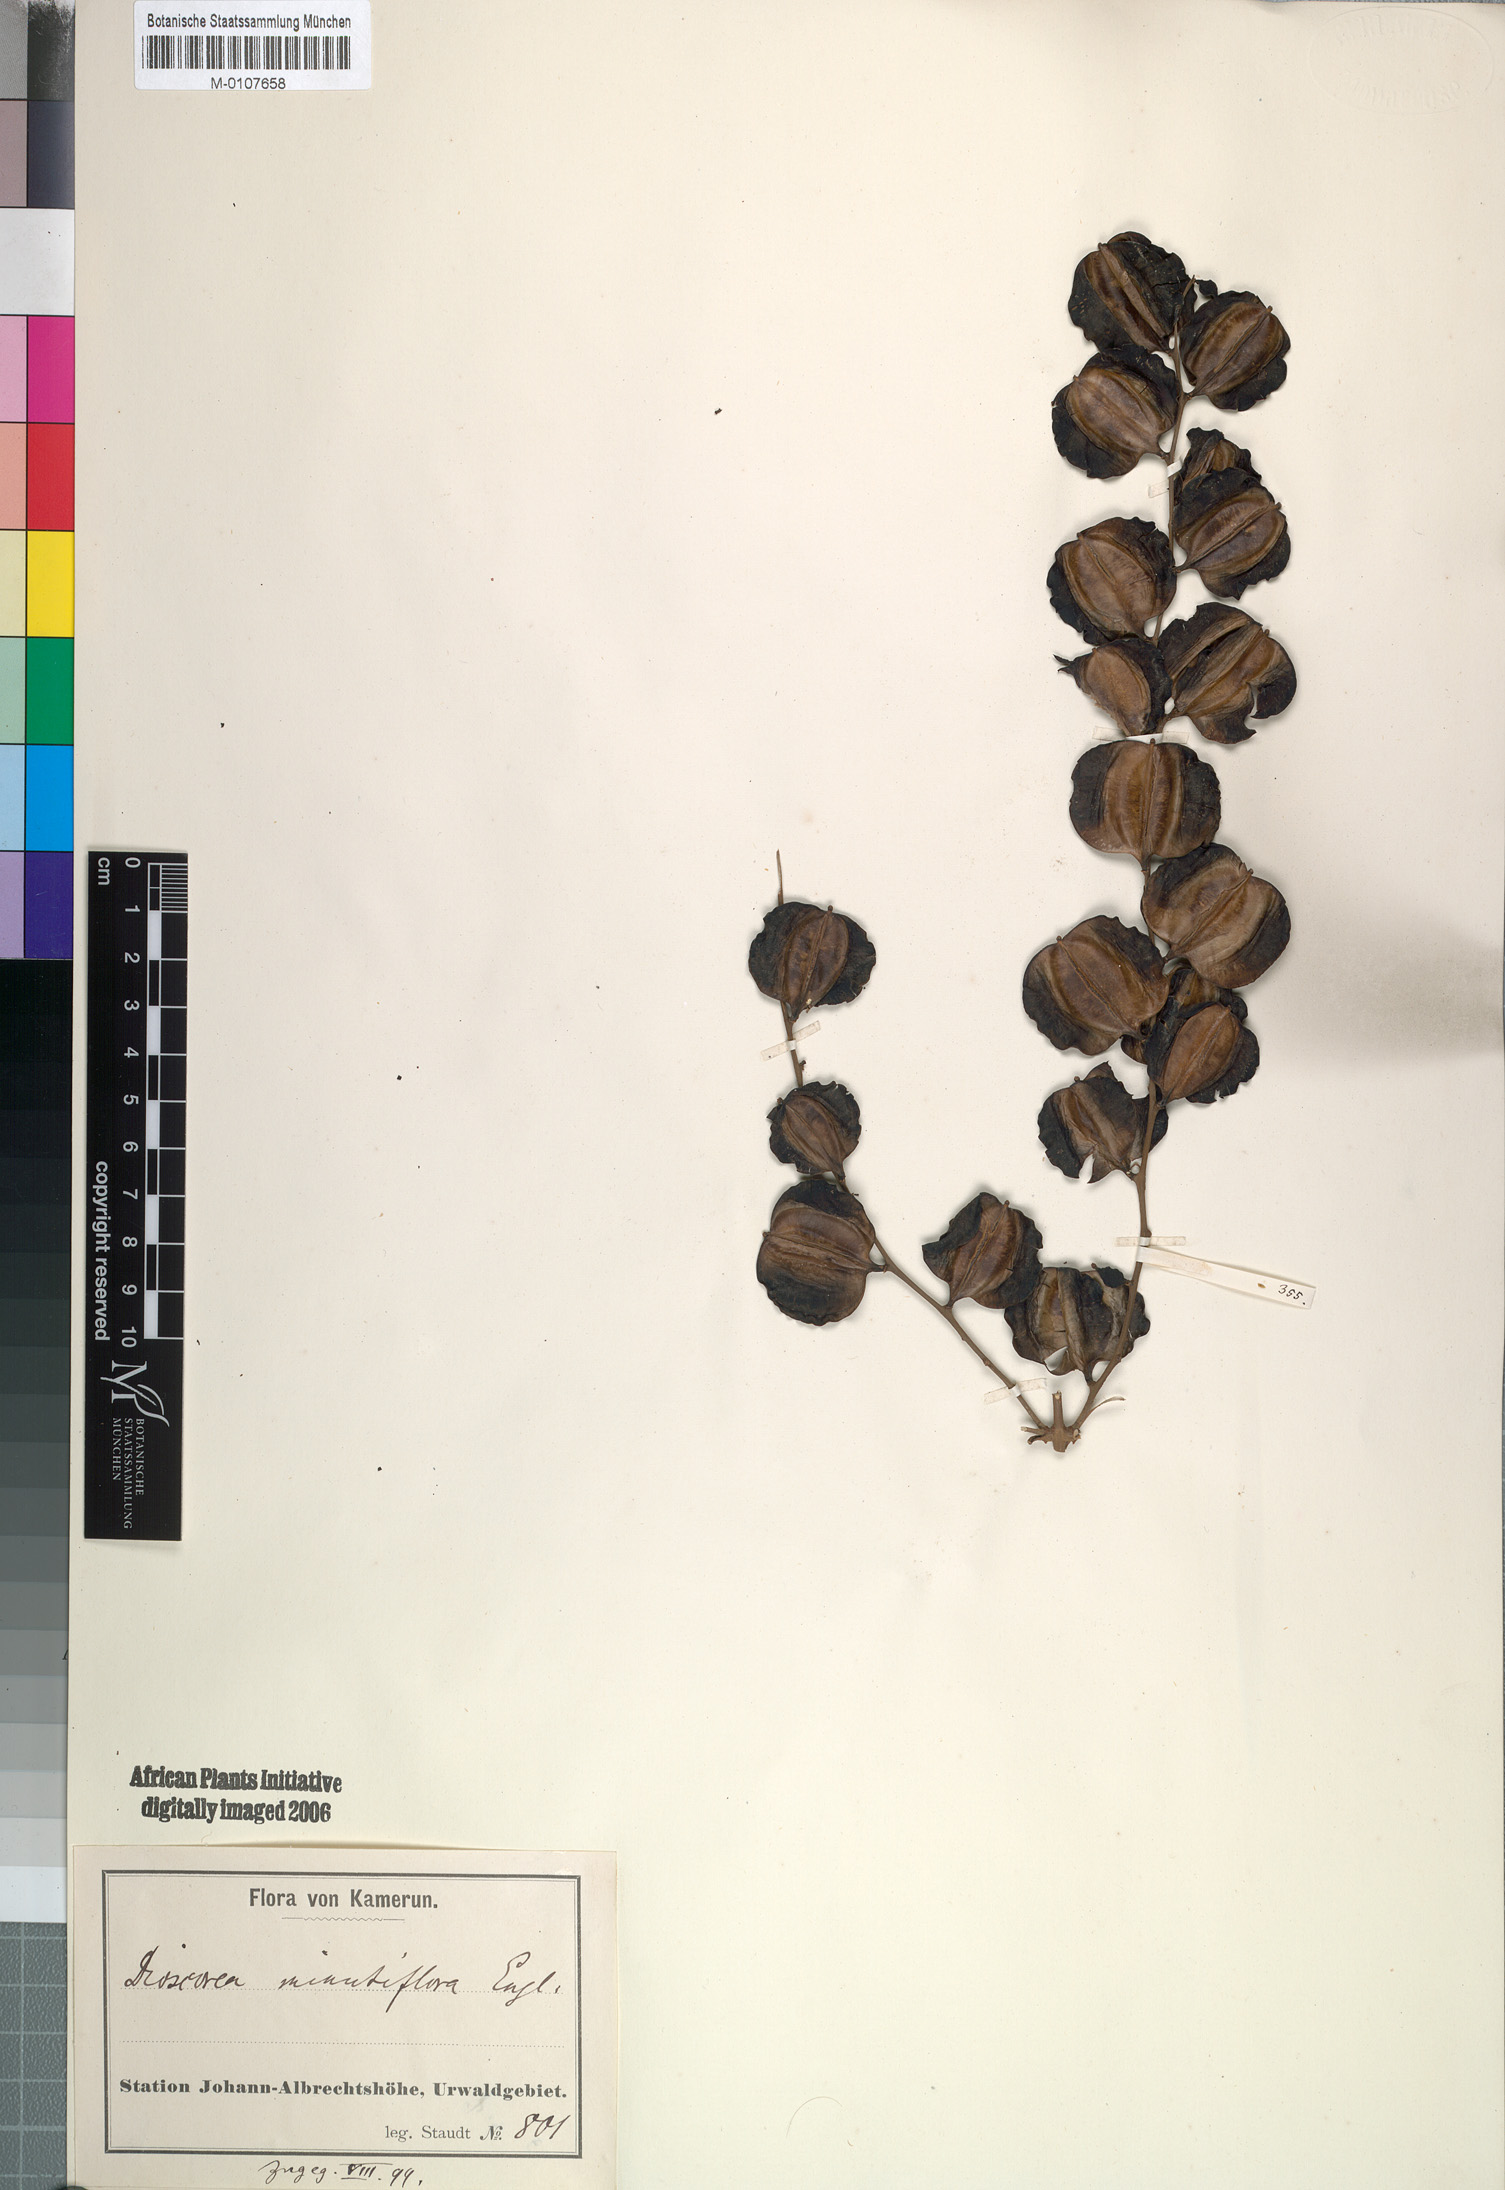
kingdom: Plantae
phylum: Tracheophyta
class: Liliopsida
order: Dioscoreales
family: Dioscoreaceae
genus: Dioscorea
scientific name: Dioscorea minutiflora
